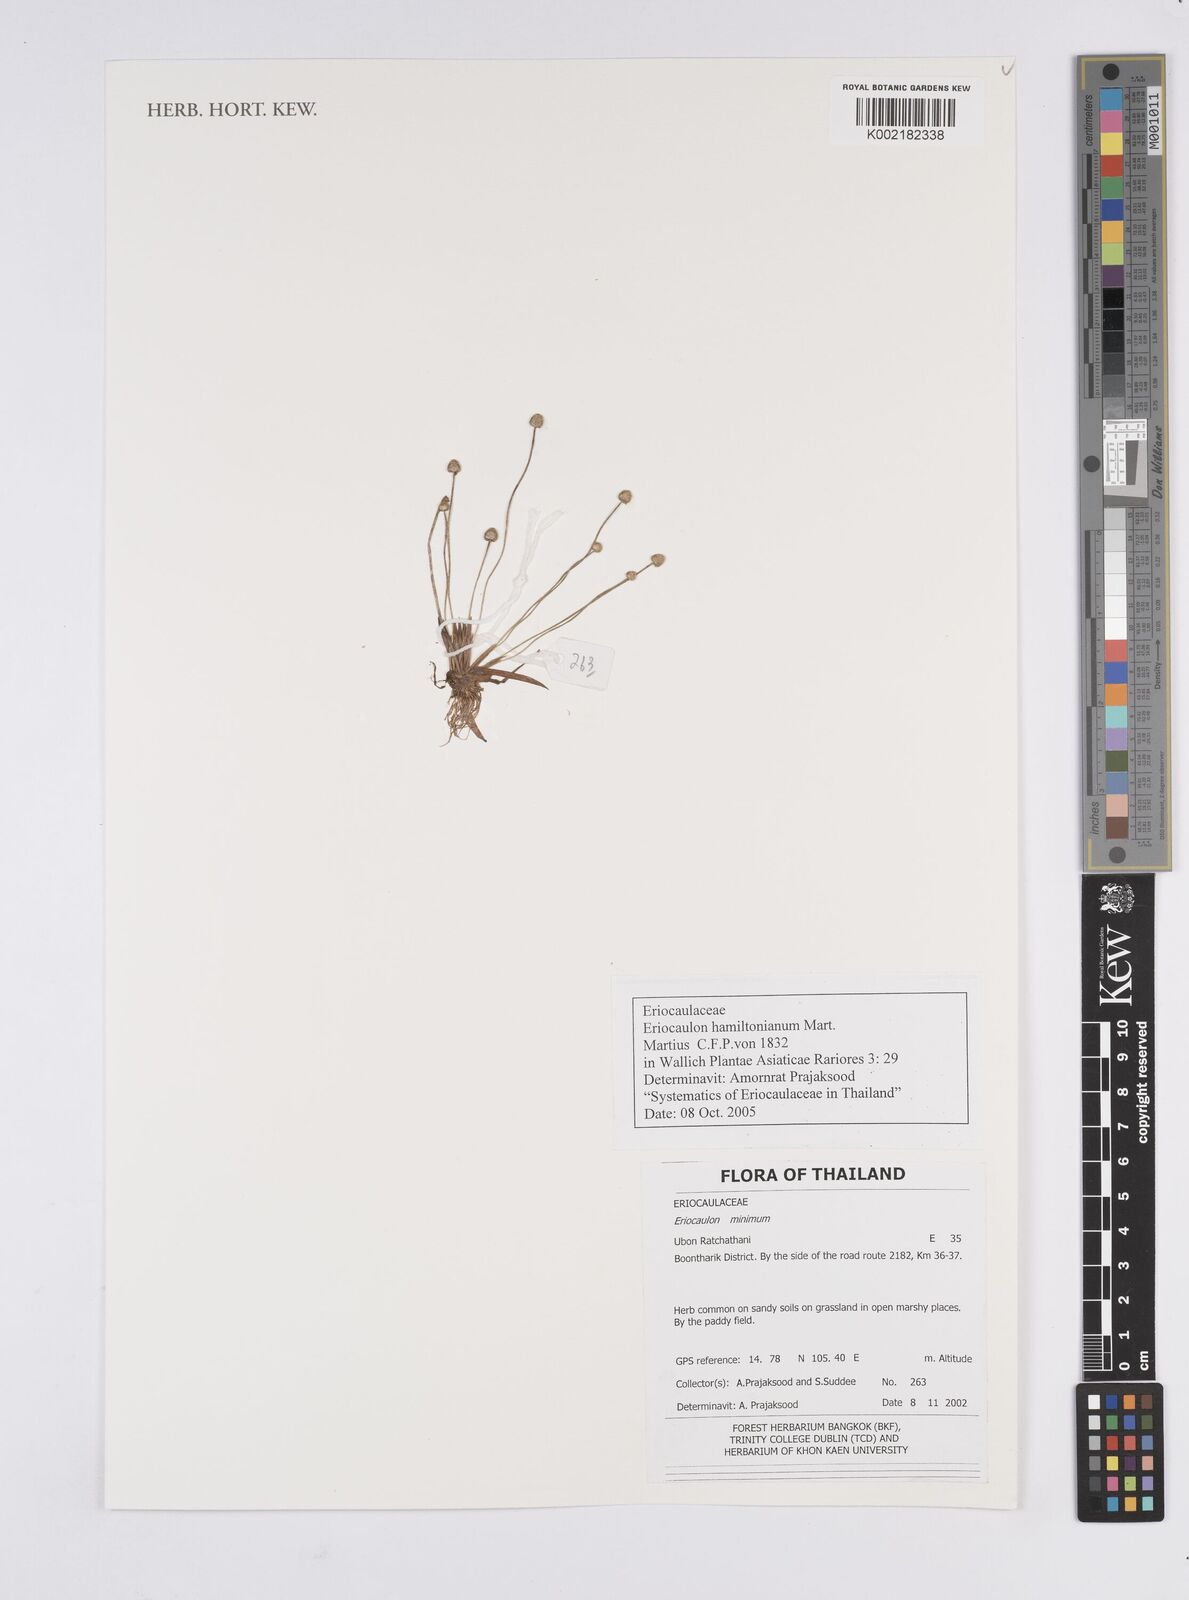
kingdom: Plantae
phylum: Tracheophyta
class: Liliopsida
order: Poales
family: Eriocaulaceae
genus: Eriocaulon
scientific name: Eriocaulon hamiltonianum
